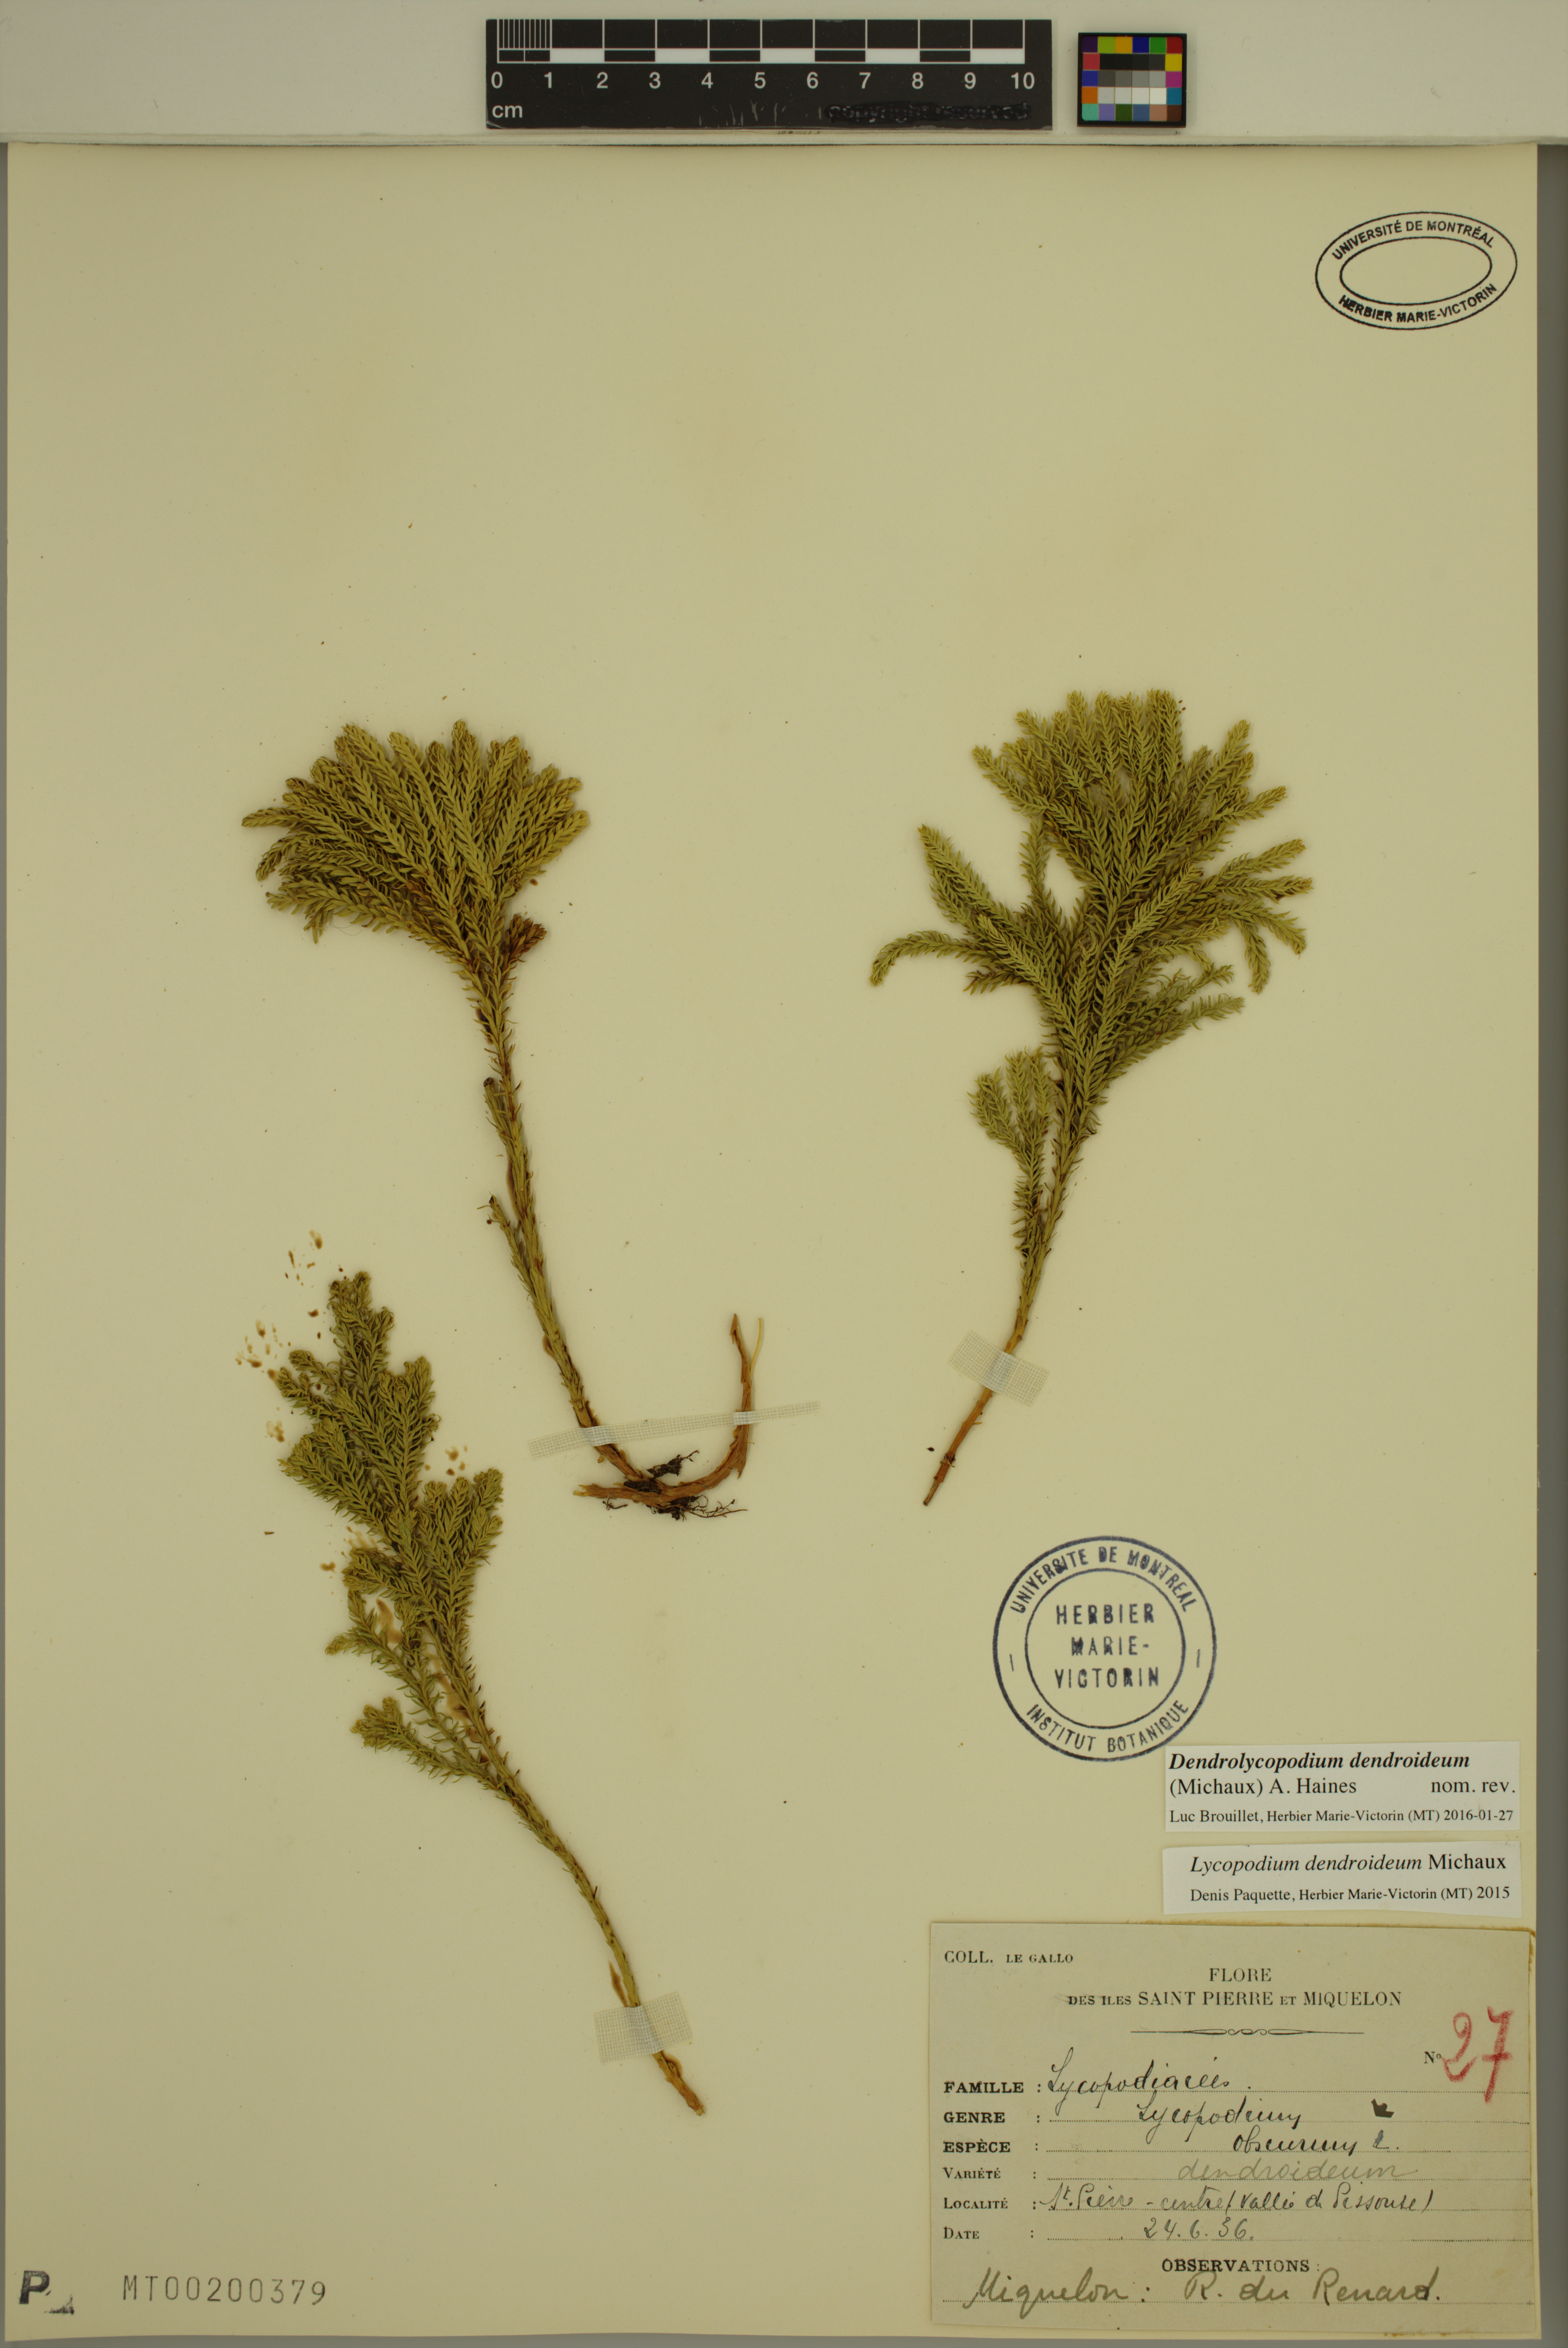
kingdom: Plantae
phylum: Tracheophyta
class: Lycopodiopsida
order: Lycopodiales
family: Lycopodiaceae
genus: Dendrolycopodium
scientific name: Dendrolycopodium dendroideum
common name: Northern tree-clubmoss
